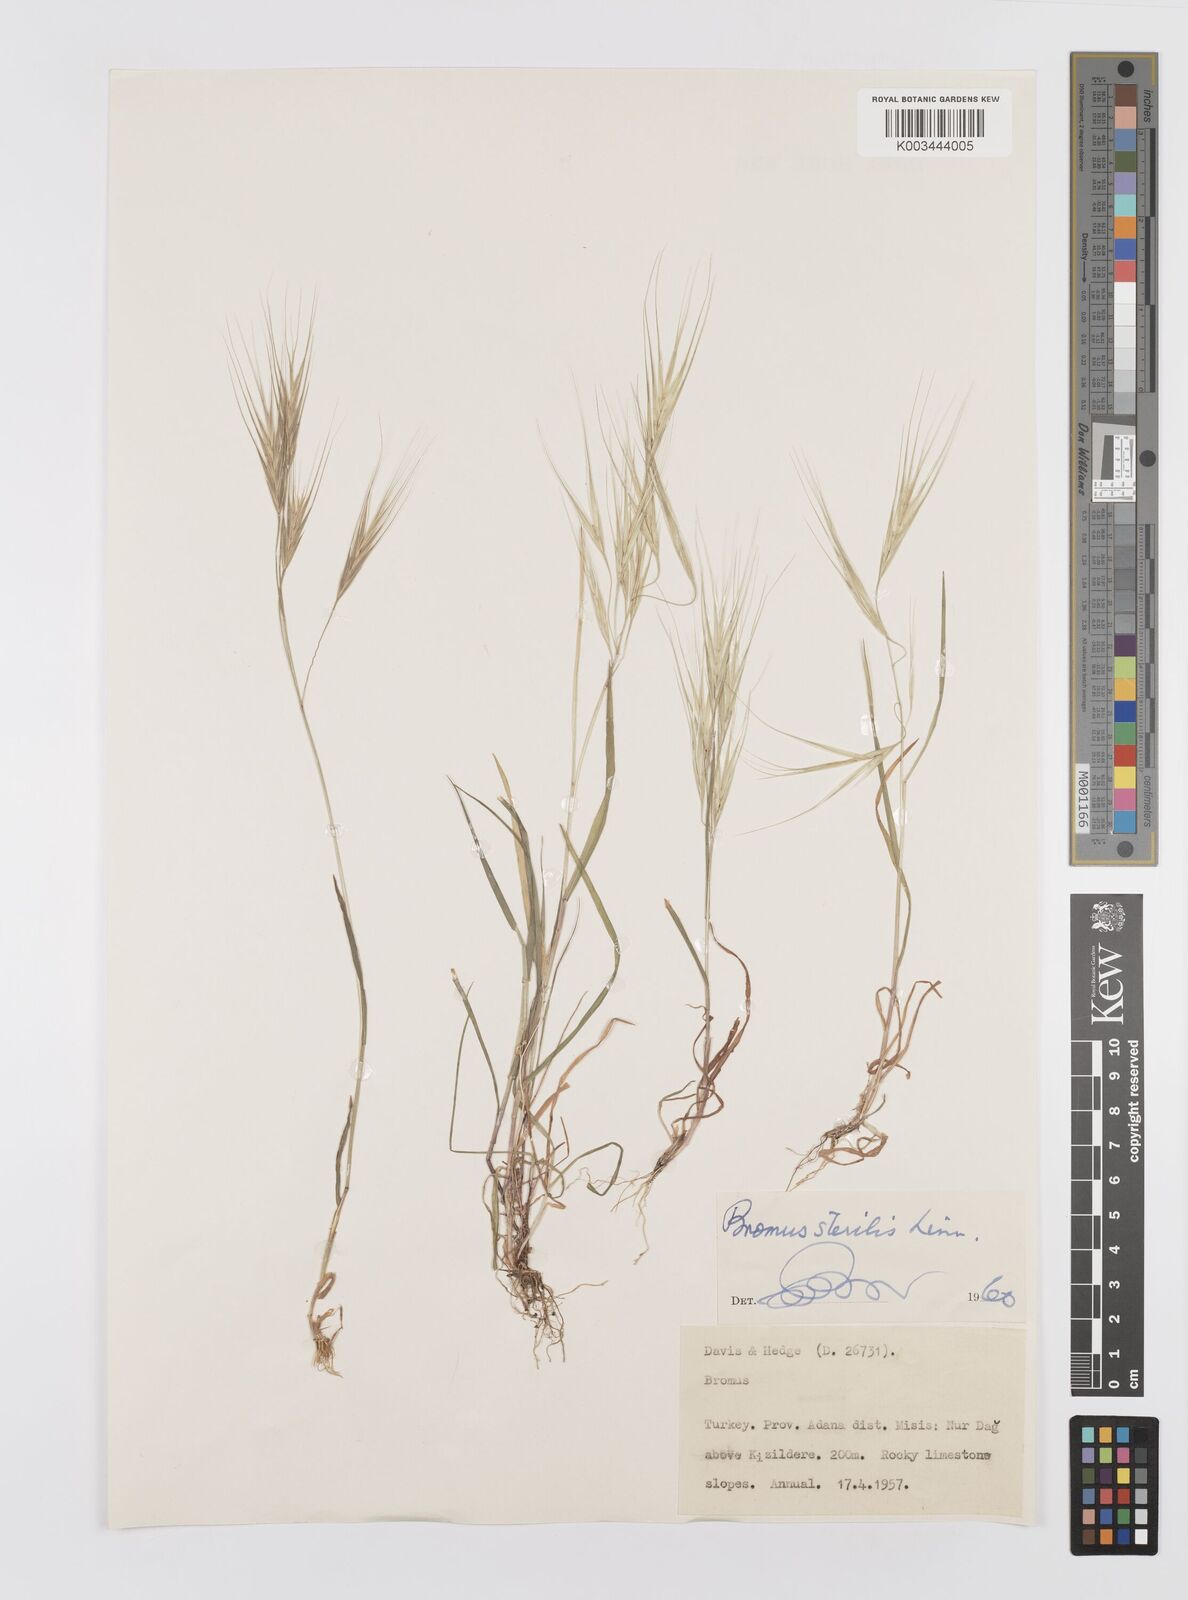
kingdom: Plantae
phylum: Tracheophyta
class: Liliopsida
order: Poales
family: Poaceae
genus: Bromus
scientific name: Bromus sterilis
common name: Poverty brome
